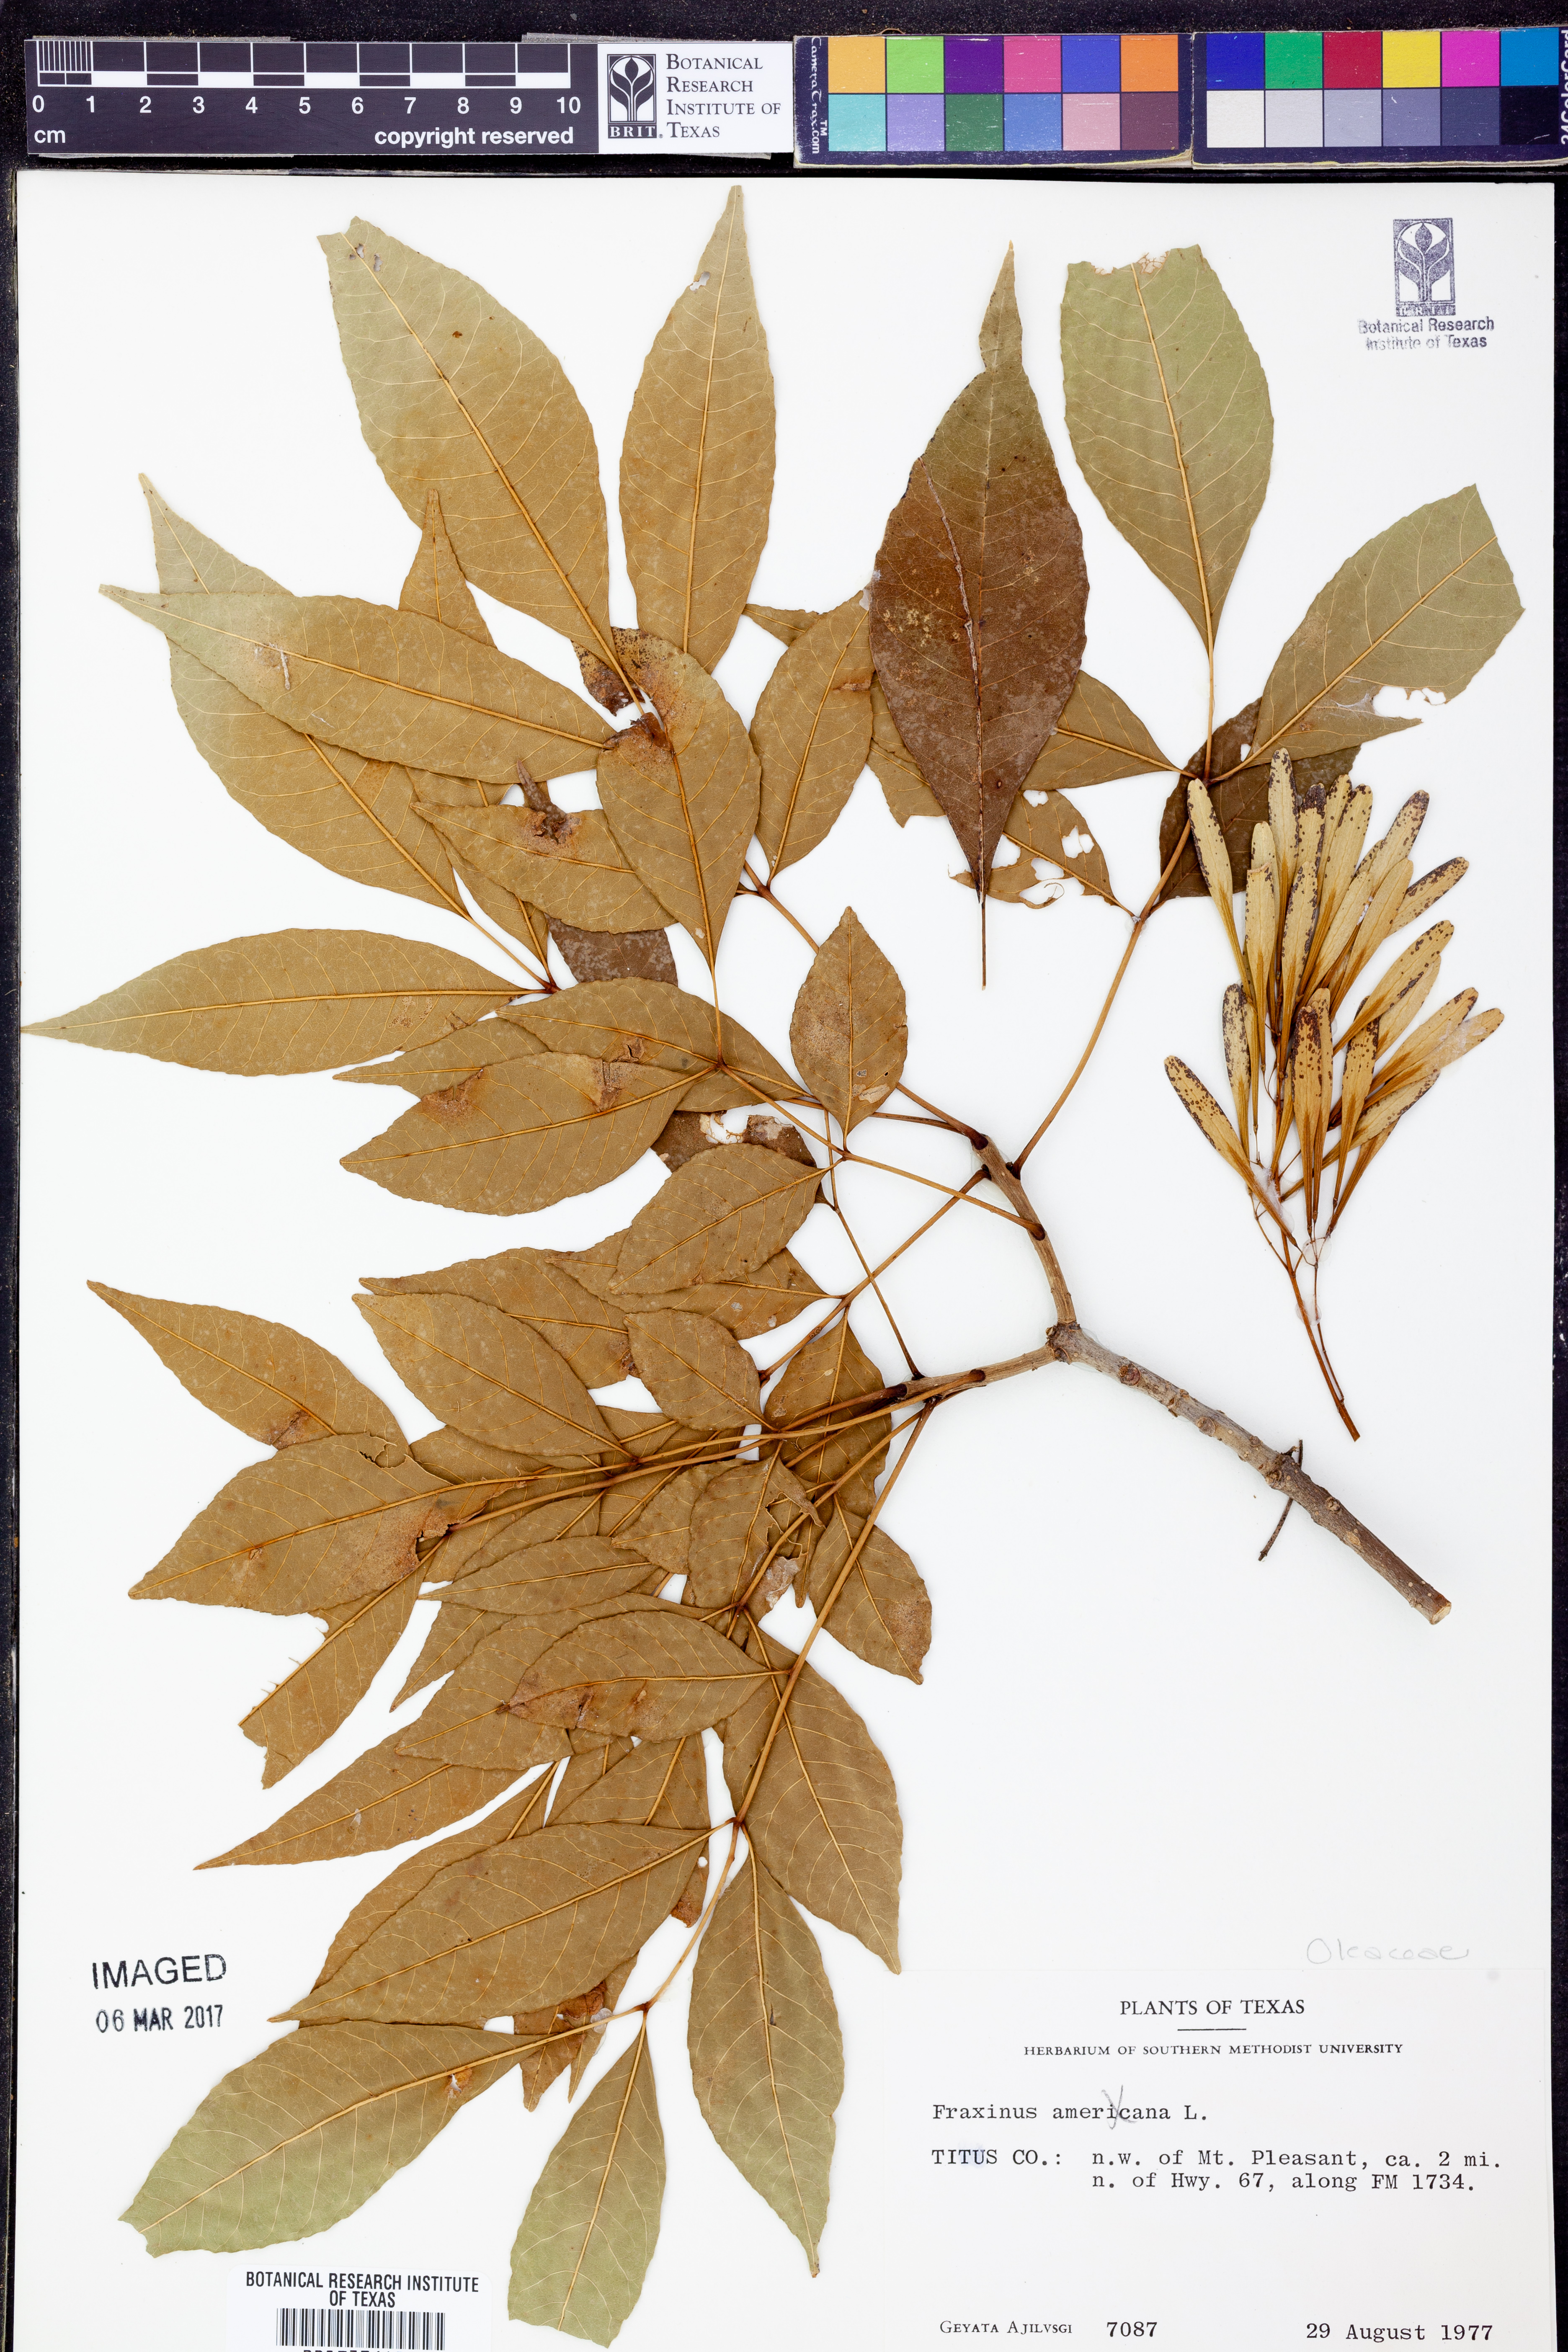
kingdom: Plantae
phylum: Tracheophyta
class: Magnoliopsida
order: Lamiales
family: Oleaceae
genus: Fraxinus
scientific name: Fraxinus americana
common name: White ash
